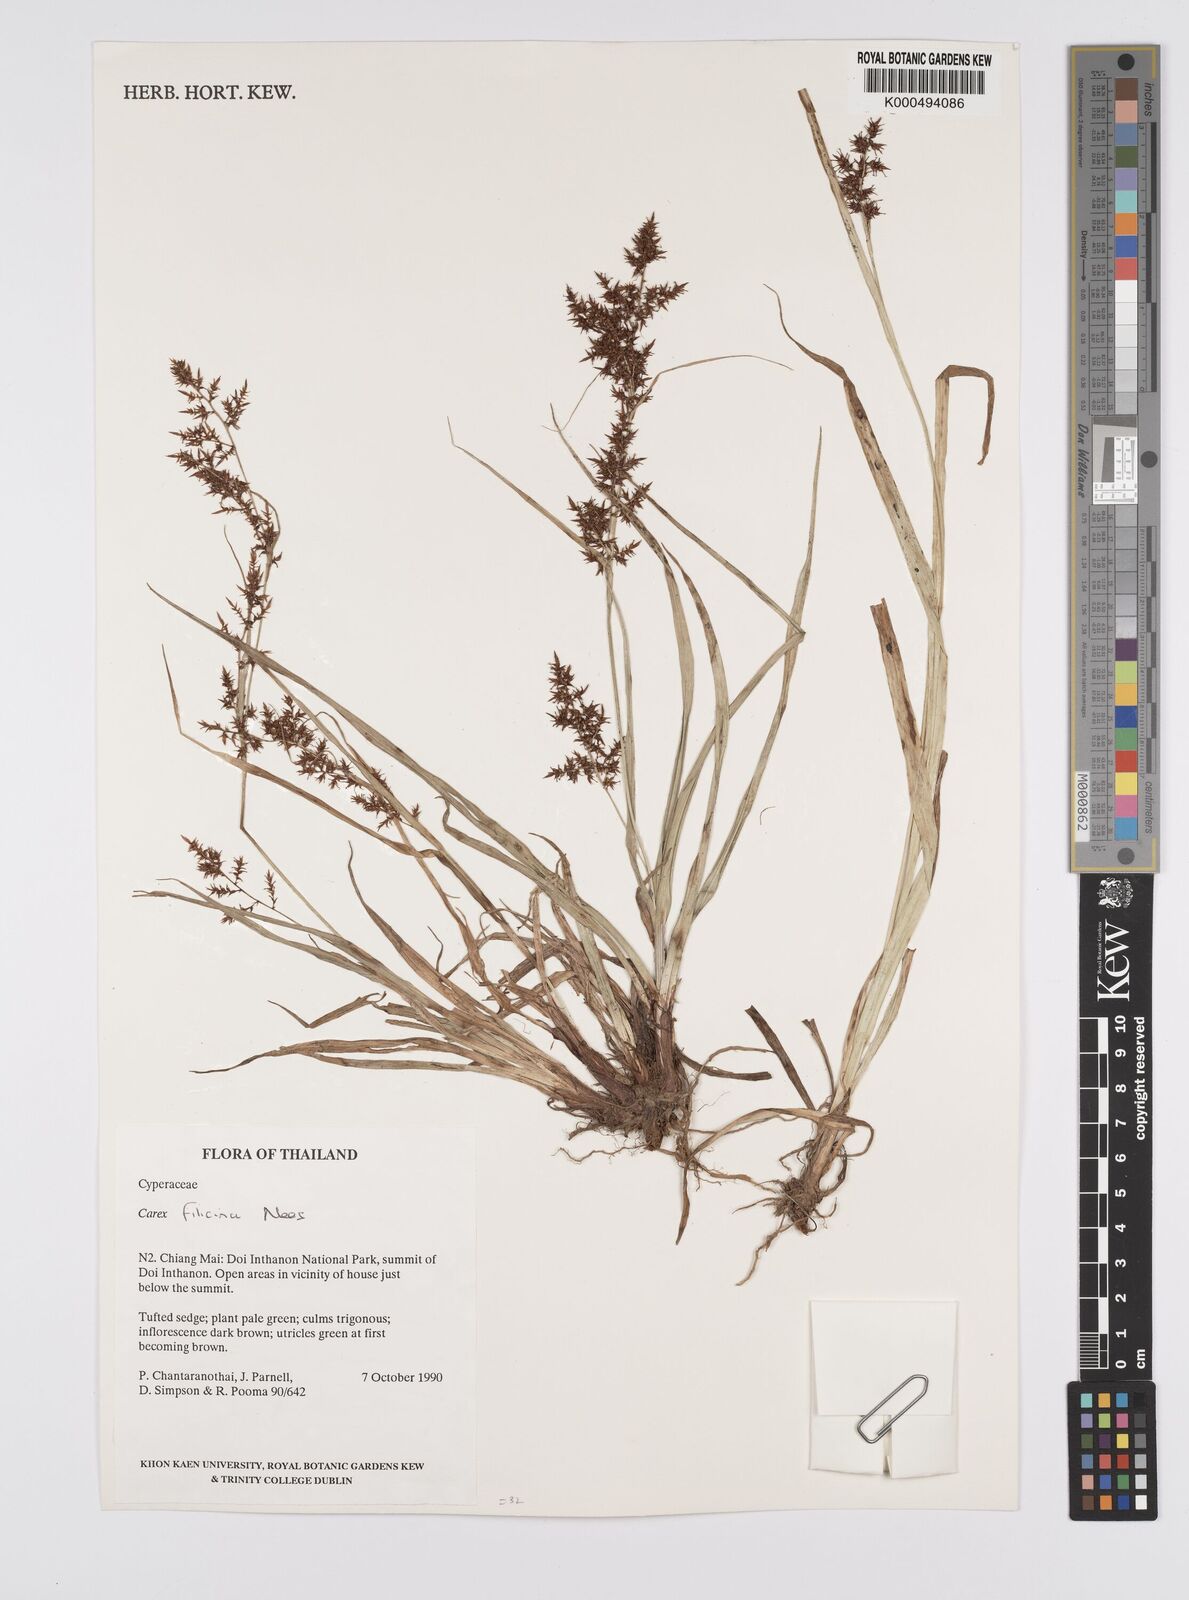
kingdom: Plantae
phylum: Tracheophyta
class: Liliopsida
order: Poales
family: Cyperaceae
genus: Carex
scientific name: Carex baccans
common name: Crimson seeded sedge
